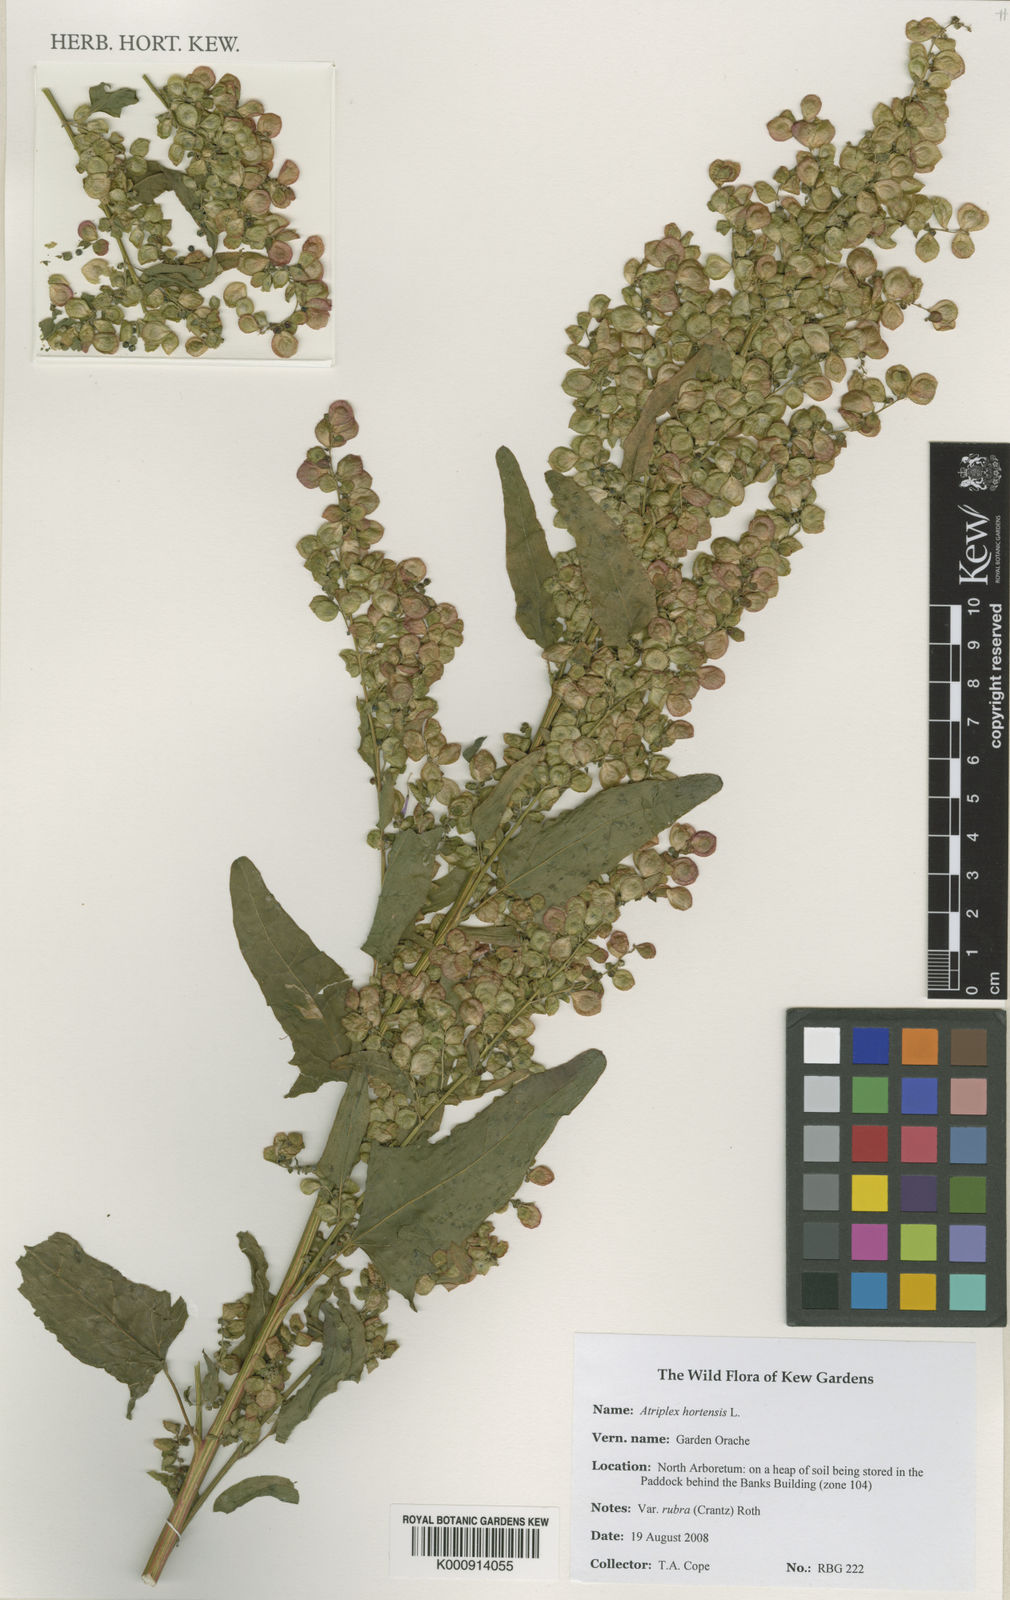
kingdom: Plantae
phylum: Tracheophyta
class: Magnoliopsida
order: Caryophyllales
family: Amaranthaceae
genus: Atriplex
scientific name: Atriplex hortensis
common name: Garden orache
